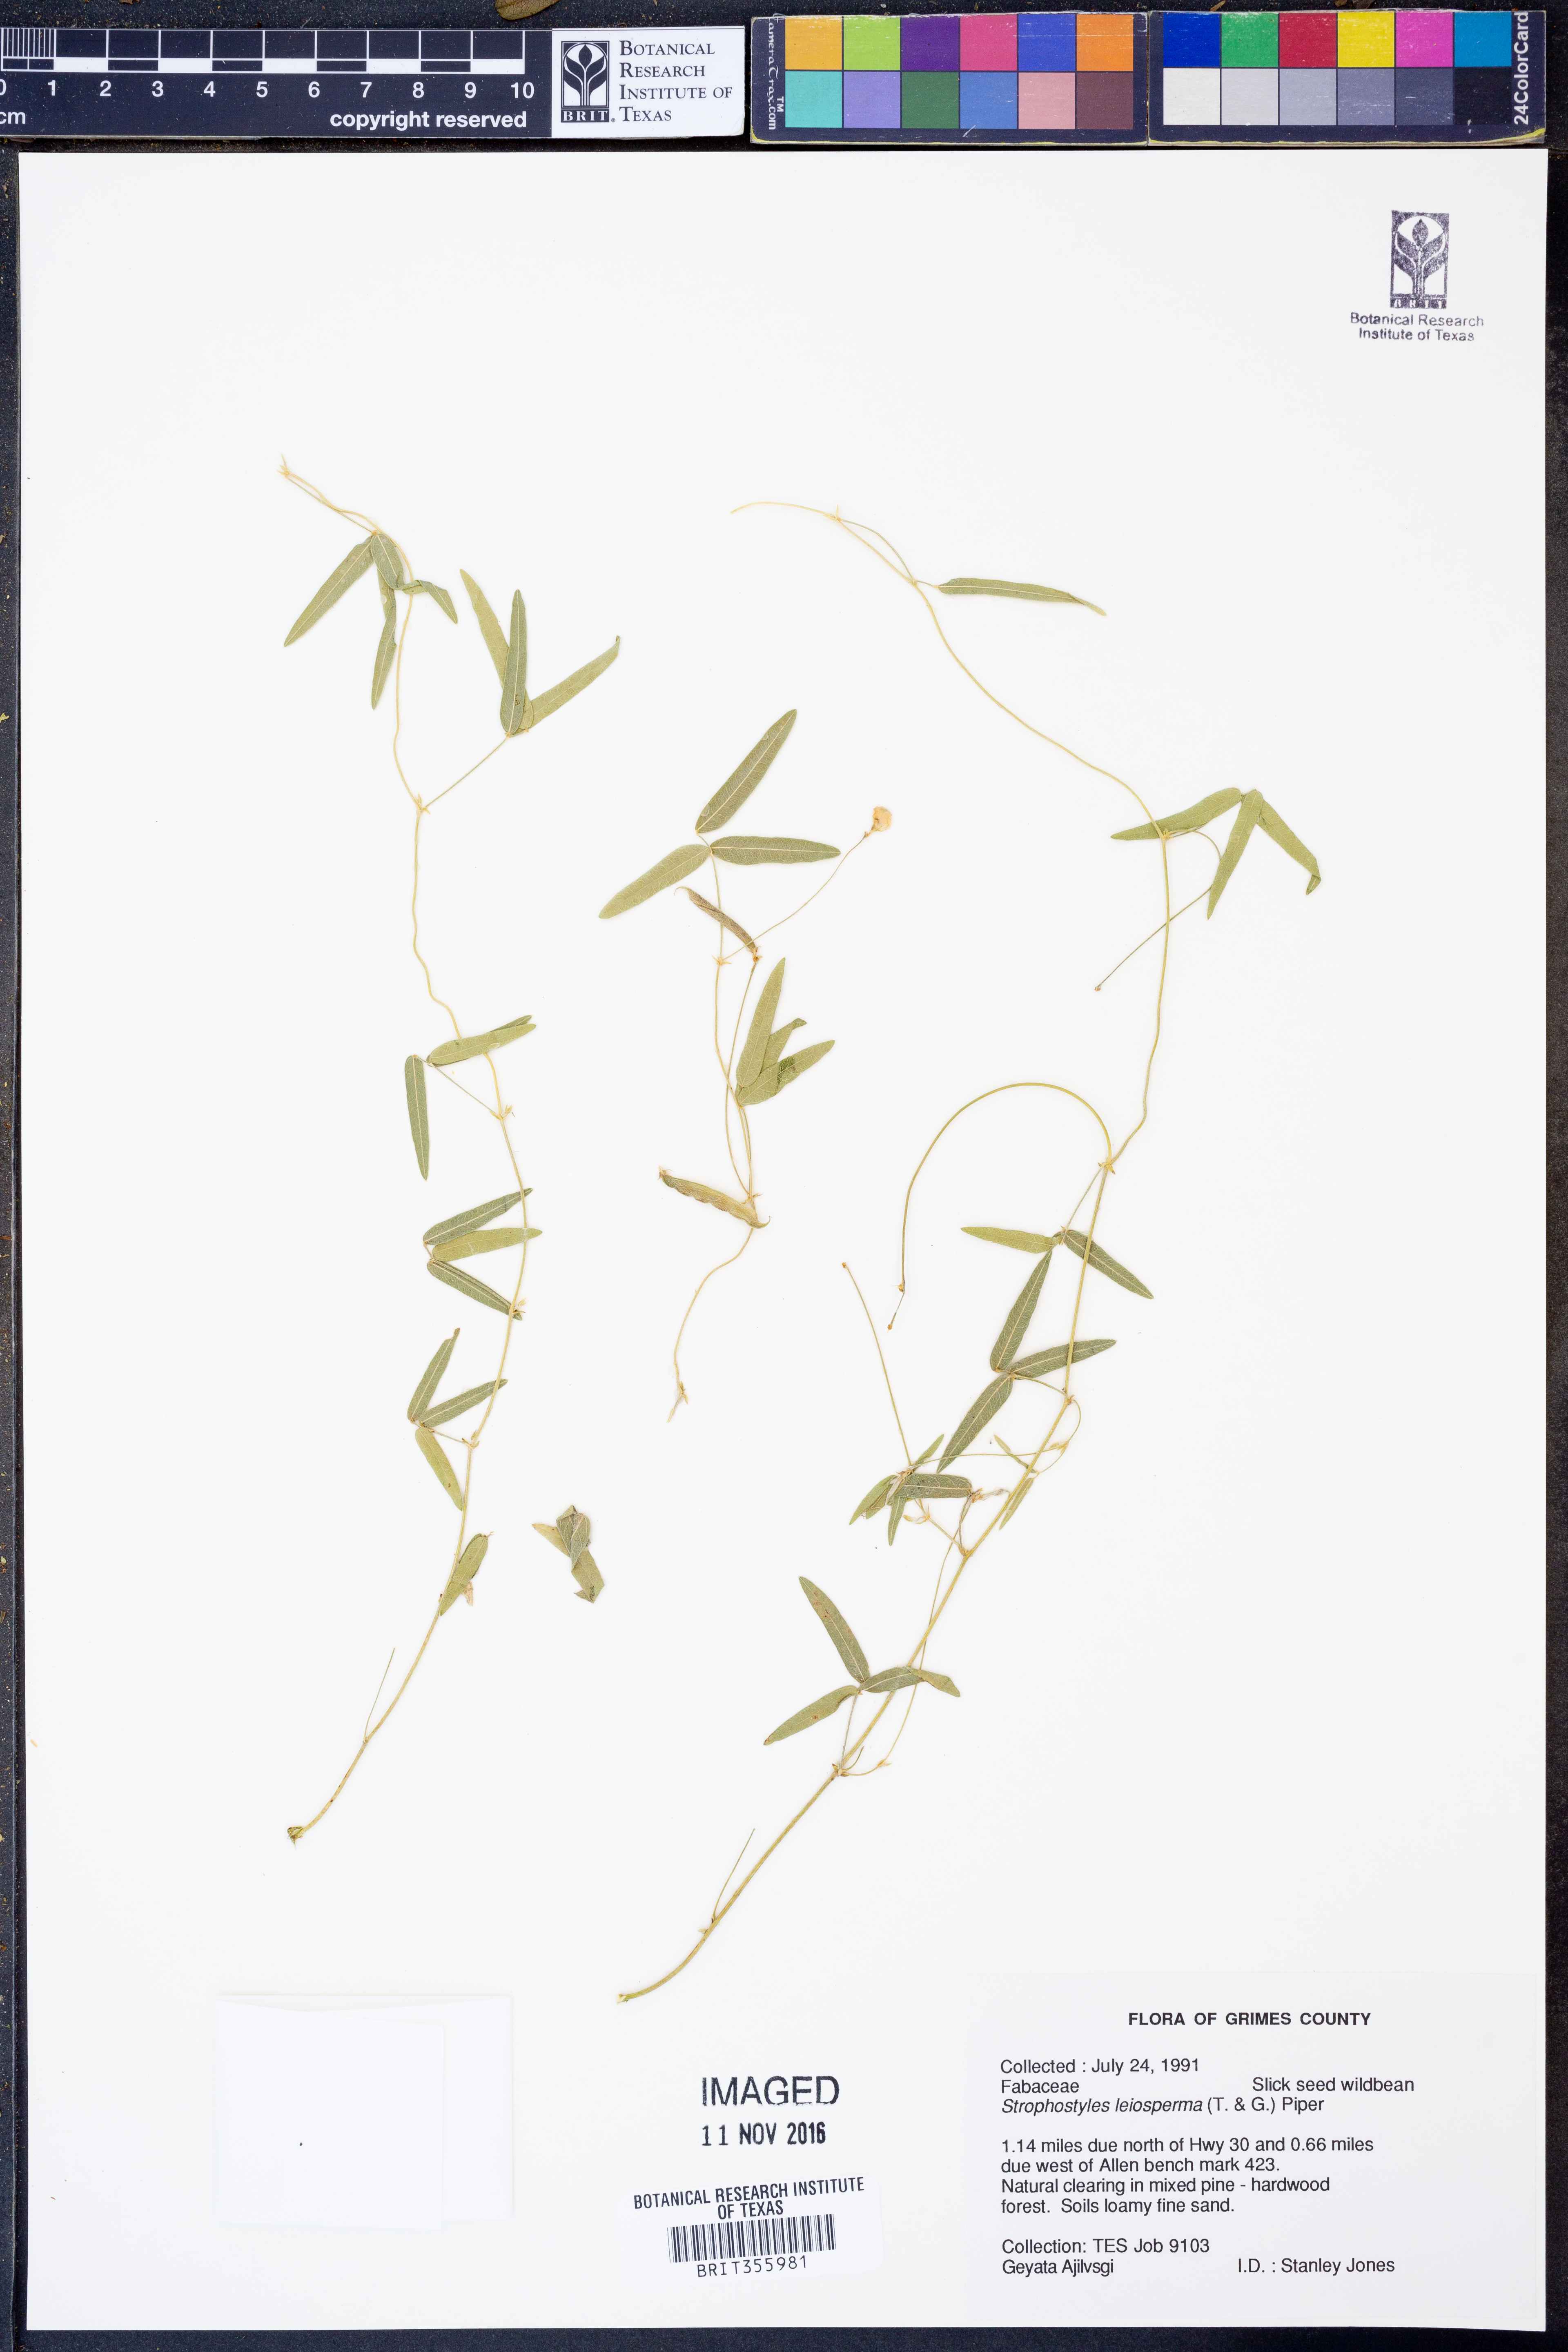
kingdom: Plantae
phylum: Tracheophyta
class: Magnoliopsida
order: Fabales
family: Fabaceae
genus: Strophostyles
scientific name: Strophostyles leiosperma
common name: Smooth-seed wild bean
